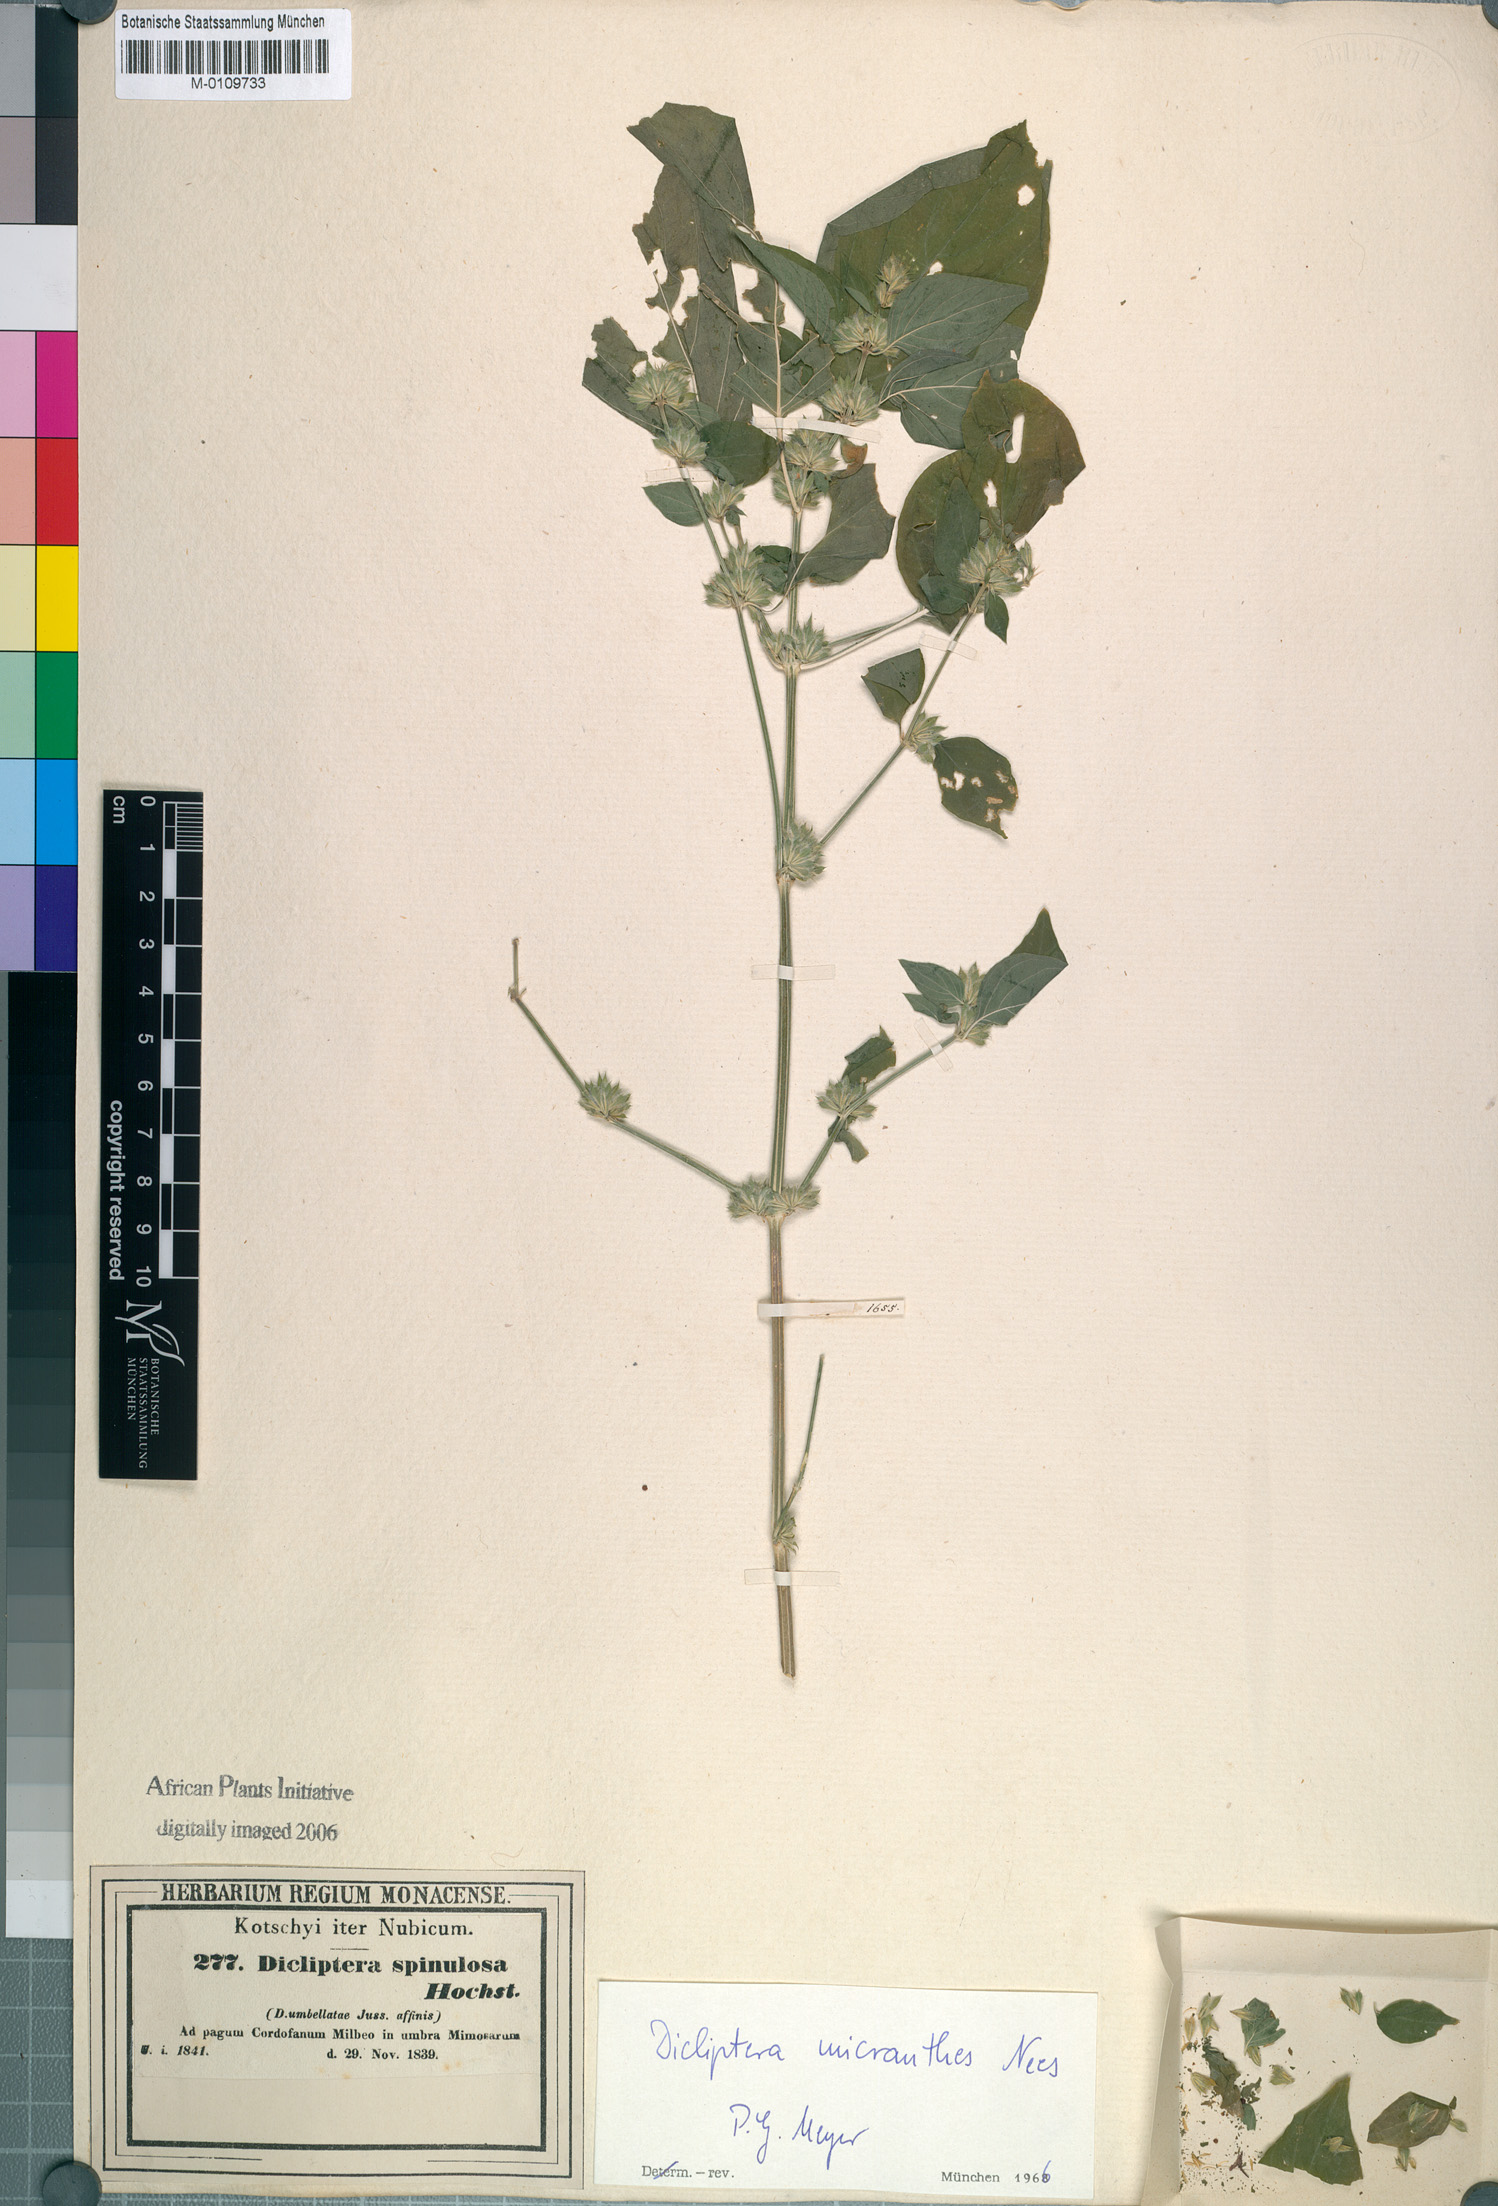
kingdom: Plantae
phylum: Tracheophyta
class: Magnoliopsida
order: Lamiales
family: Acanthaceae
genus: Dicliptera
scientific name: Dicliptera verticillata
